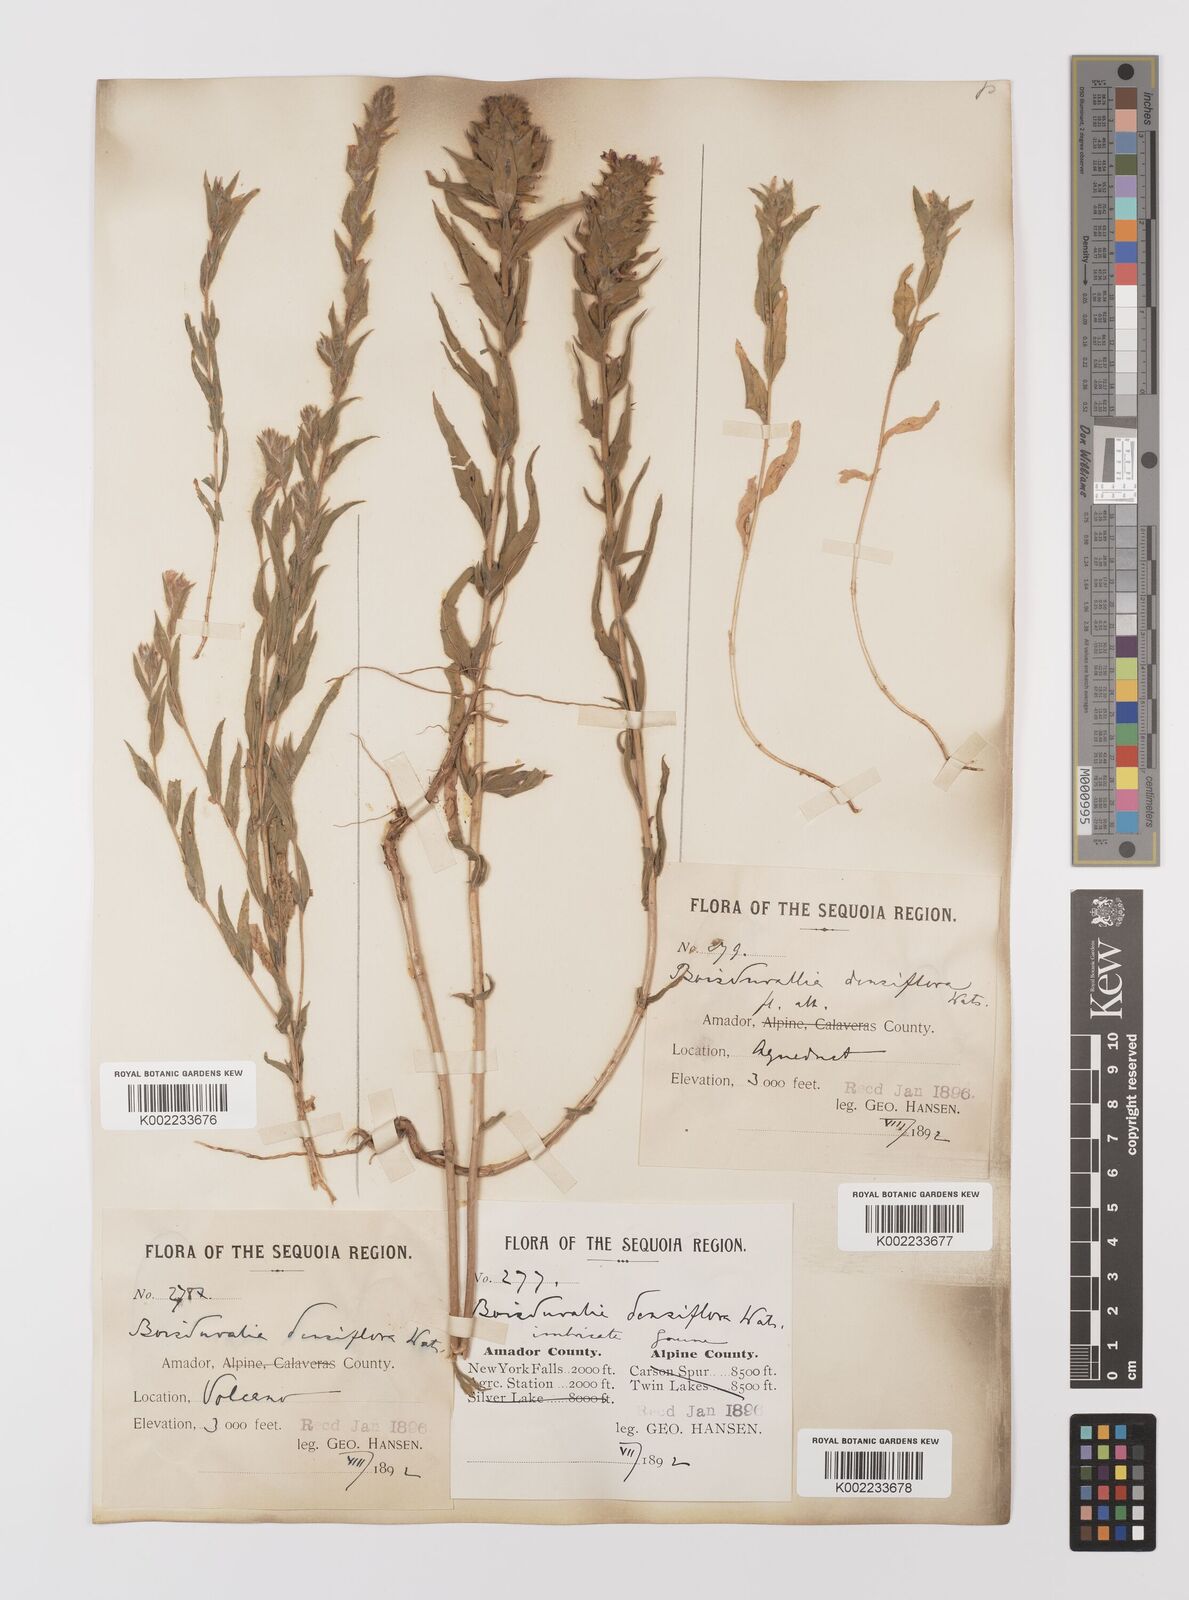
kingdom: Plantae
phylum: Tracheophyta
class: Magnoliopsida
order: Myrtales
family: Onagraceae
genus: Epilobium
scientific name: Epilobium densiflorum
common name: Dense spike-primrose
